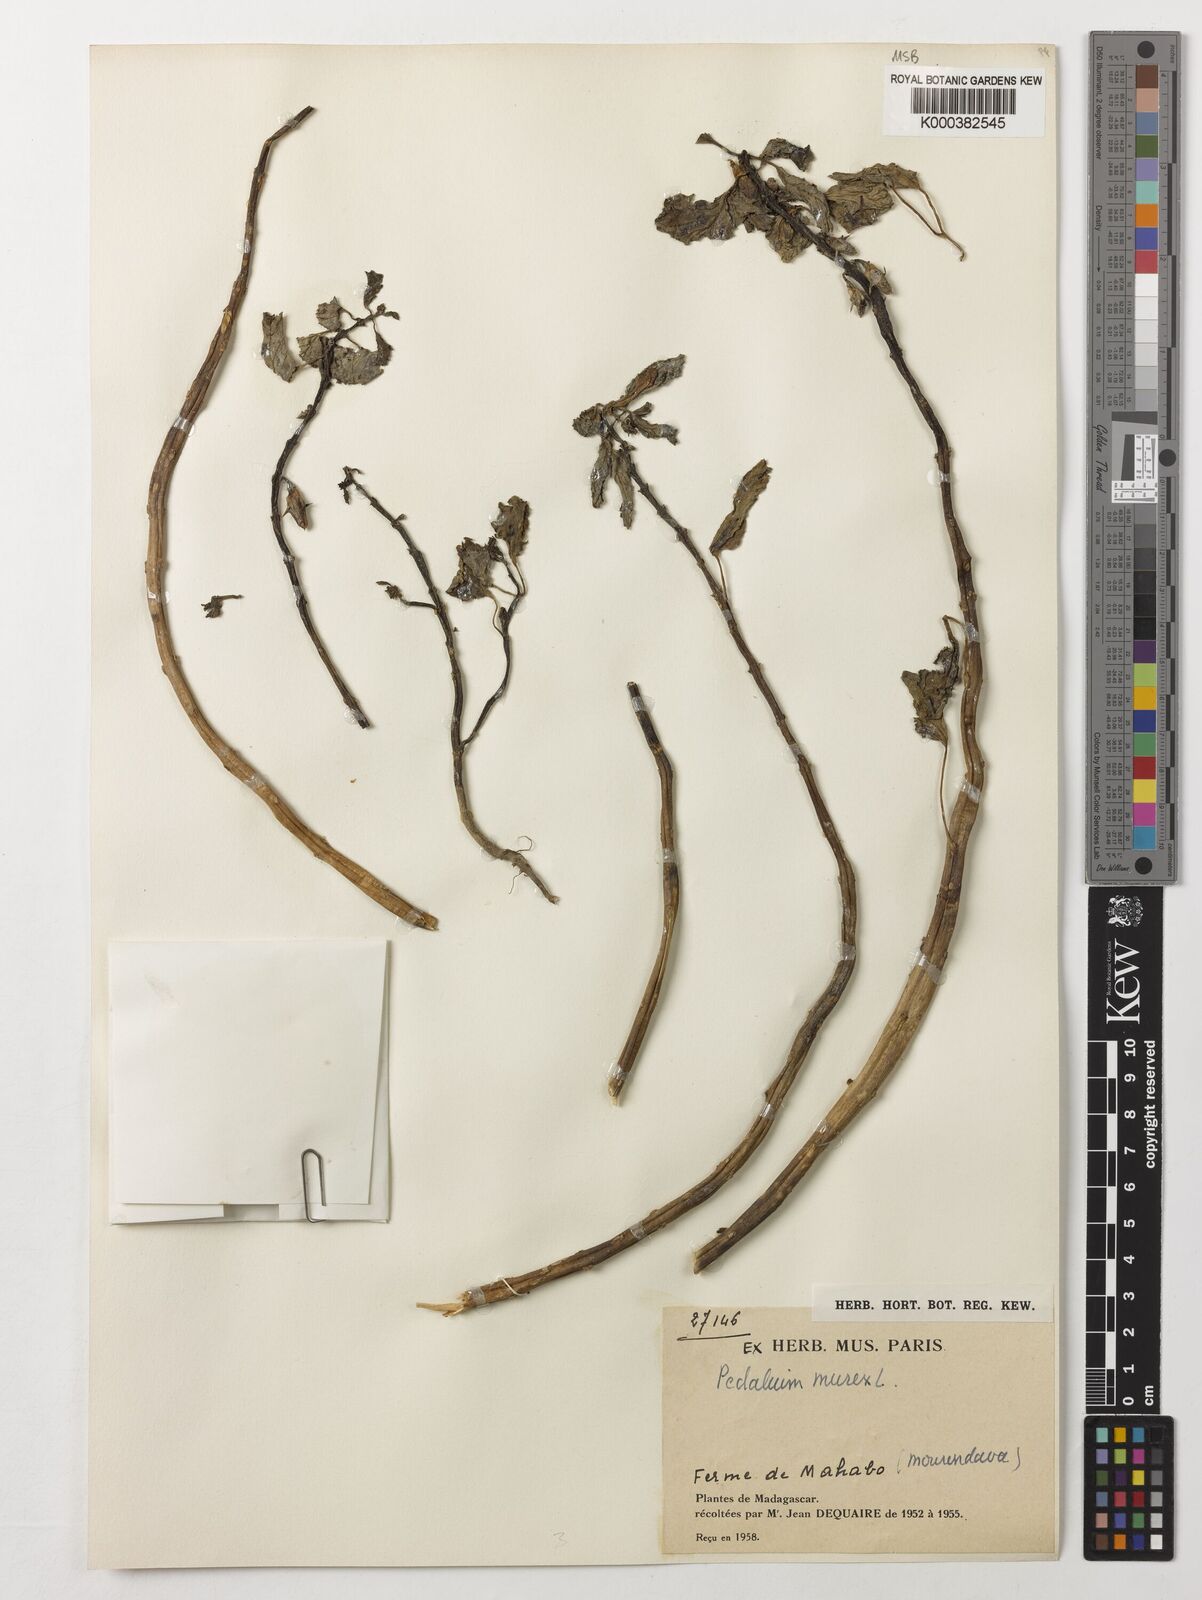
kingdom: Plantae
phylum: Tracheophyta
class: Magnoliopsida
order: Lamiales
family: Pedaliaceae
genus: Pedalium
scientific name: Pedalium murex
